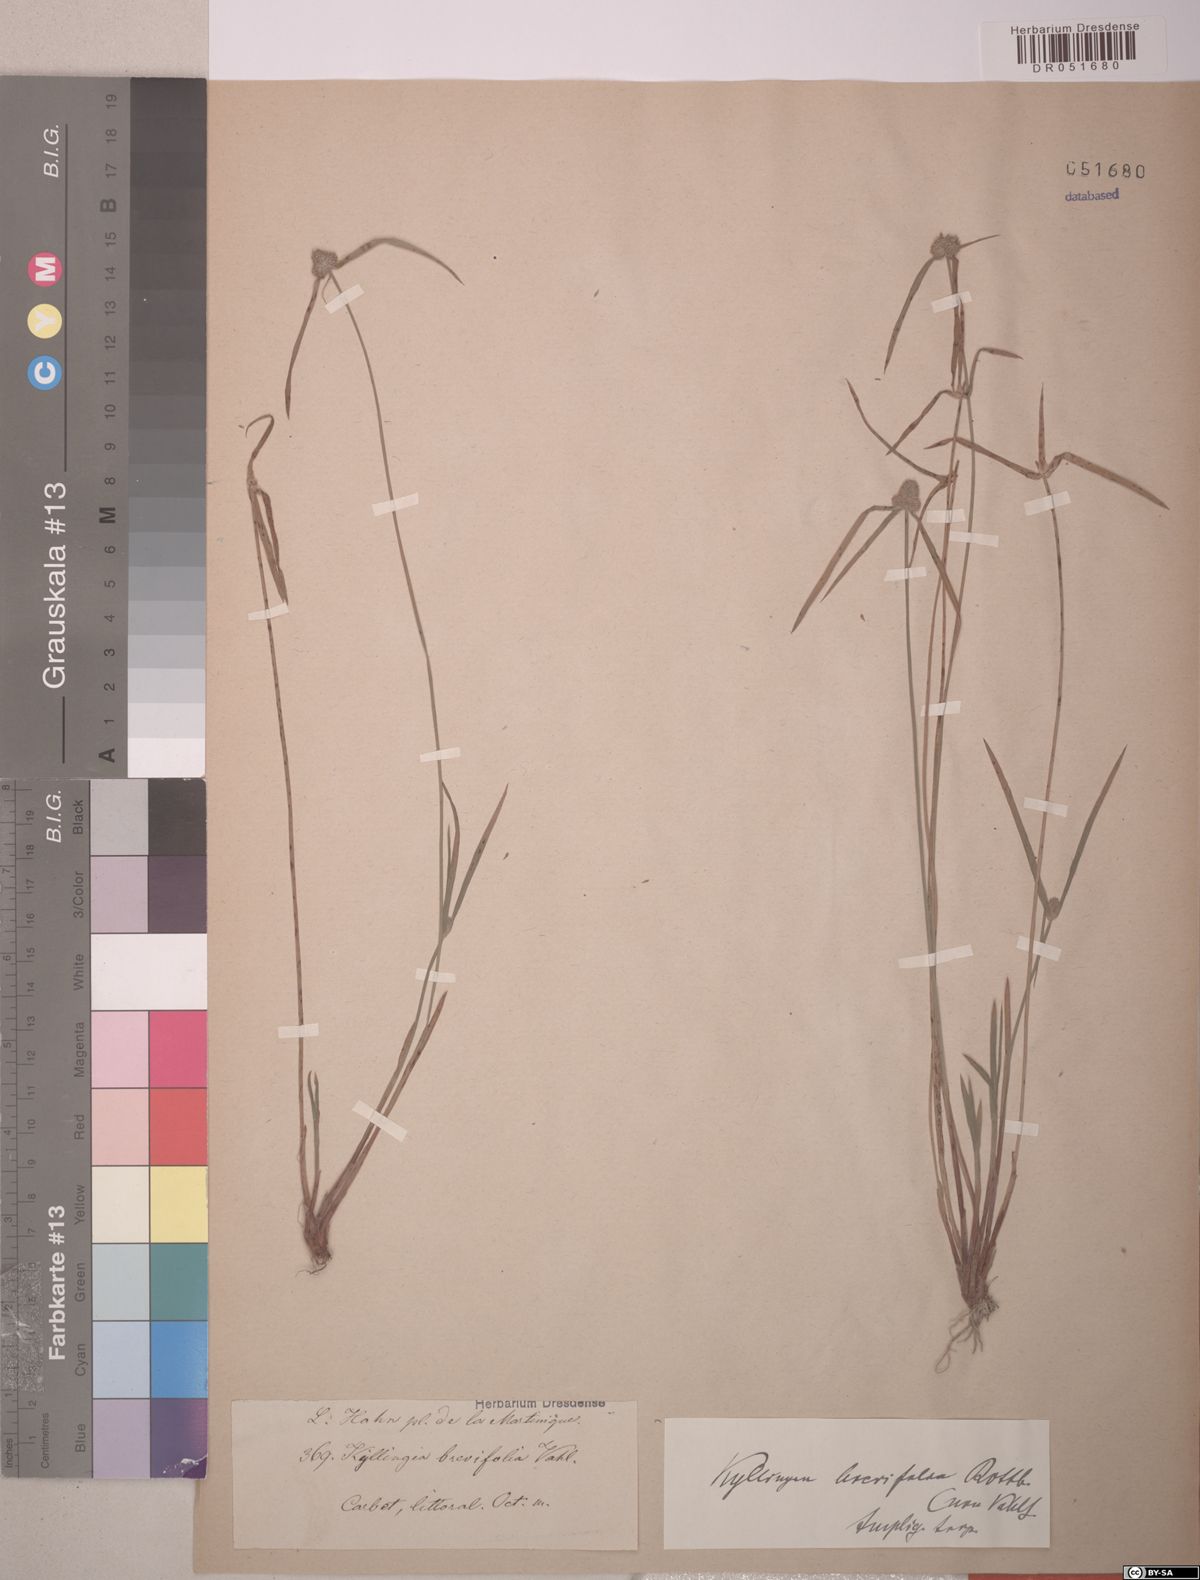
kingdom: Plantae
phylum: Tracheophyta
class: Liliopsida
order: Poales
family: Cyperaceae
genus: Cyperus
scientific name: Cyperus brevifolius
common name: Globe kyllinga
